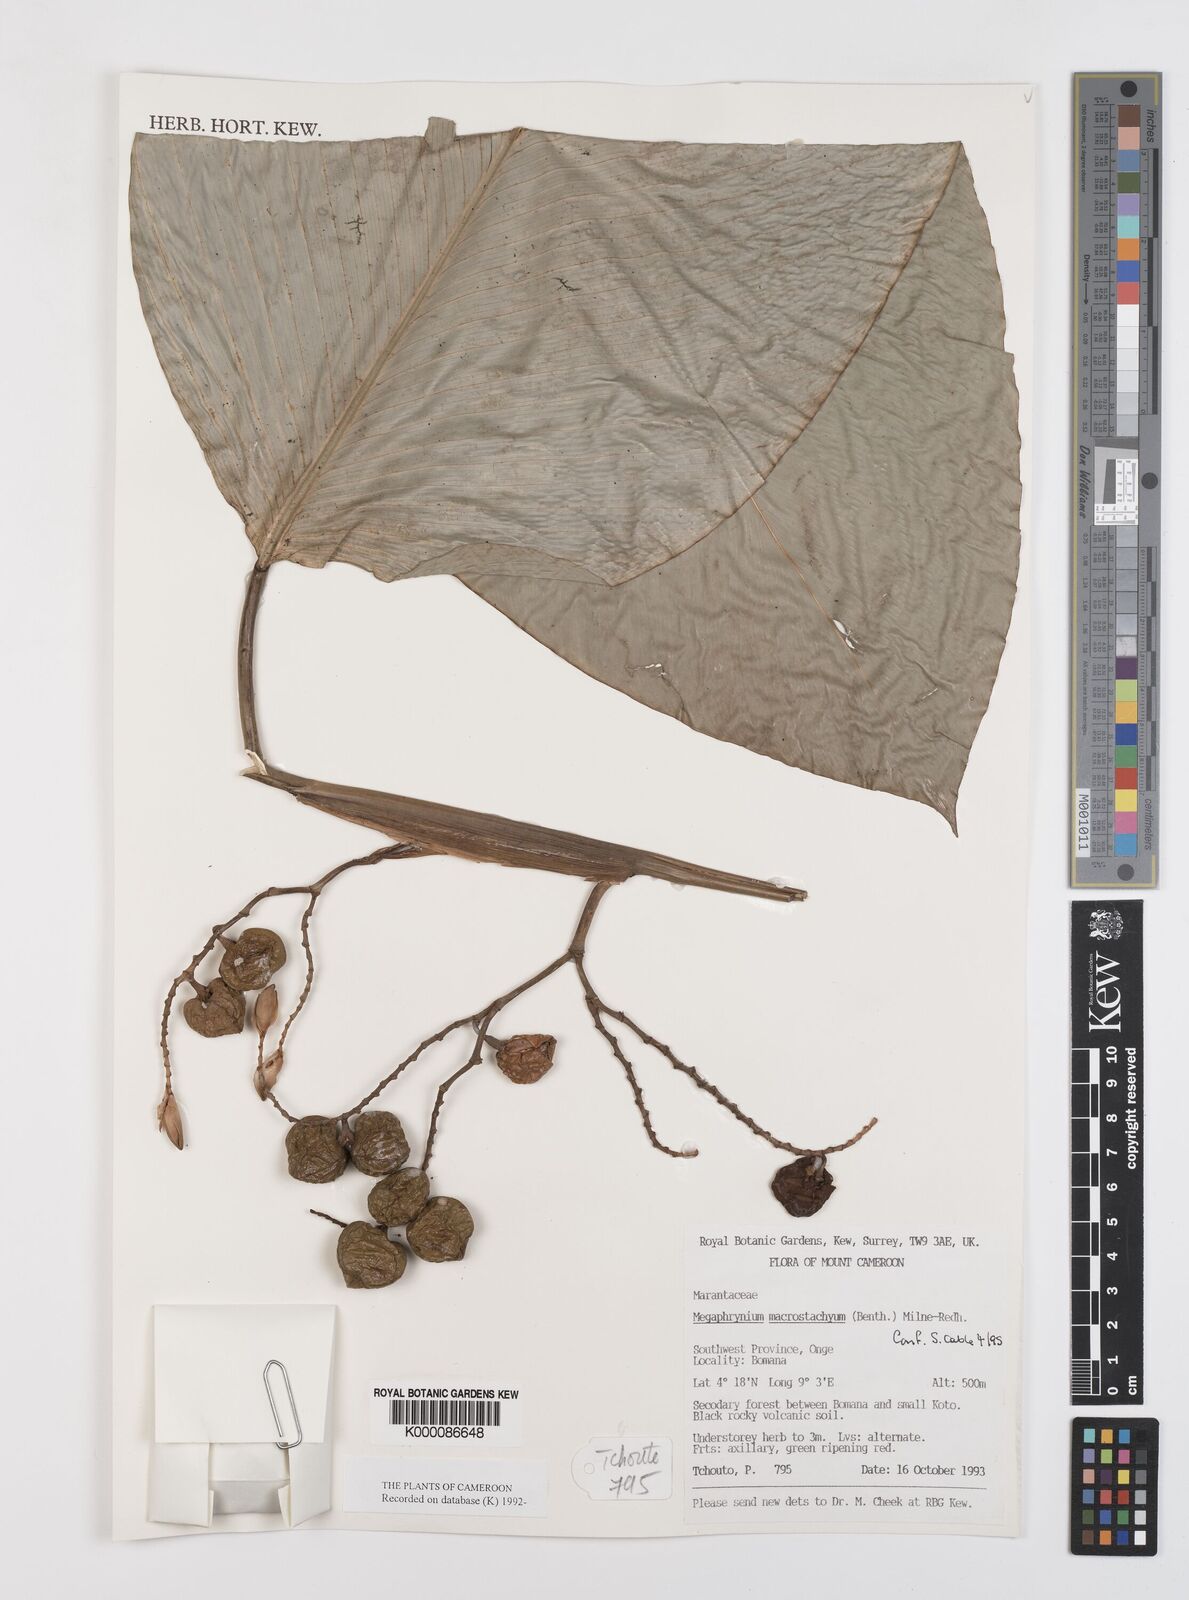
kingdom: Plantae
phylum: Tracheophyta
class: Liliopsida
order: Zingiberales
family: Marantaceae
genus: Megaphrynium
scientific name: Megaphrynium macrostachyum
